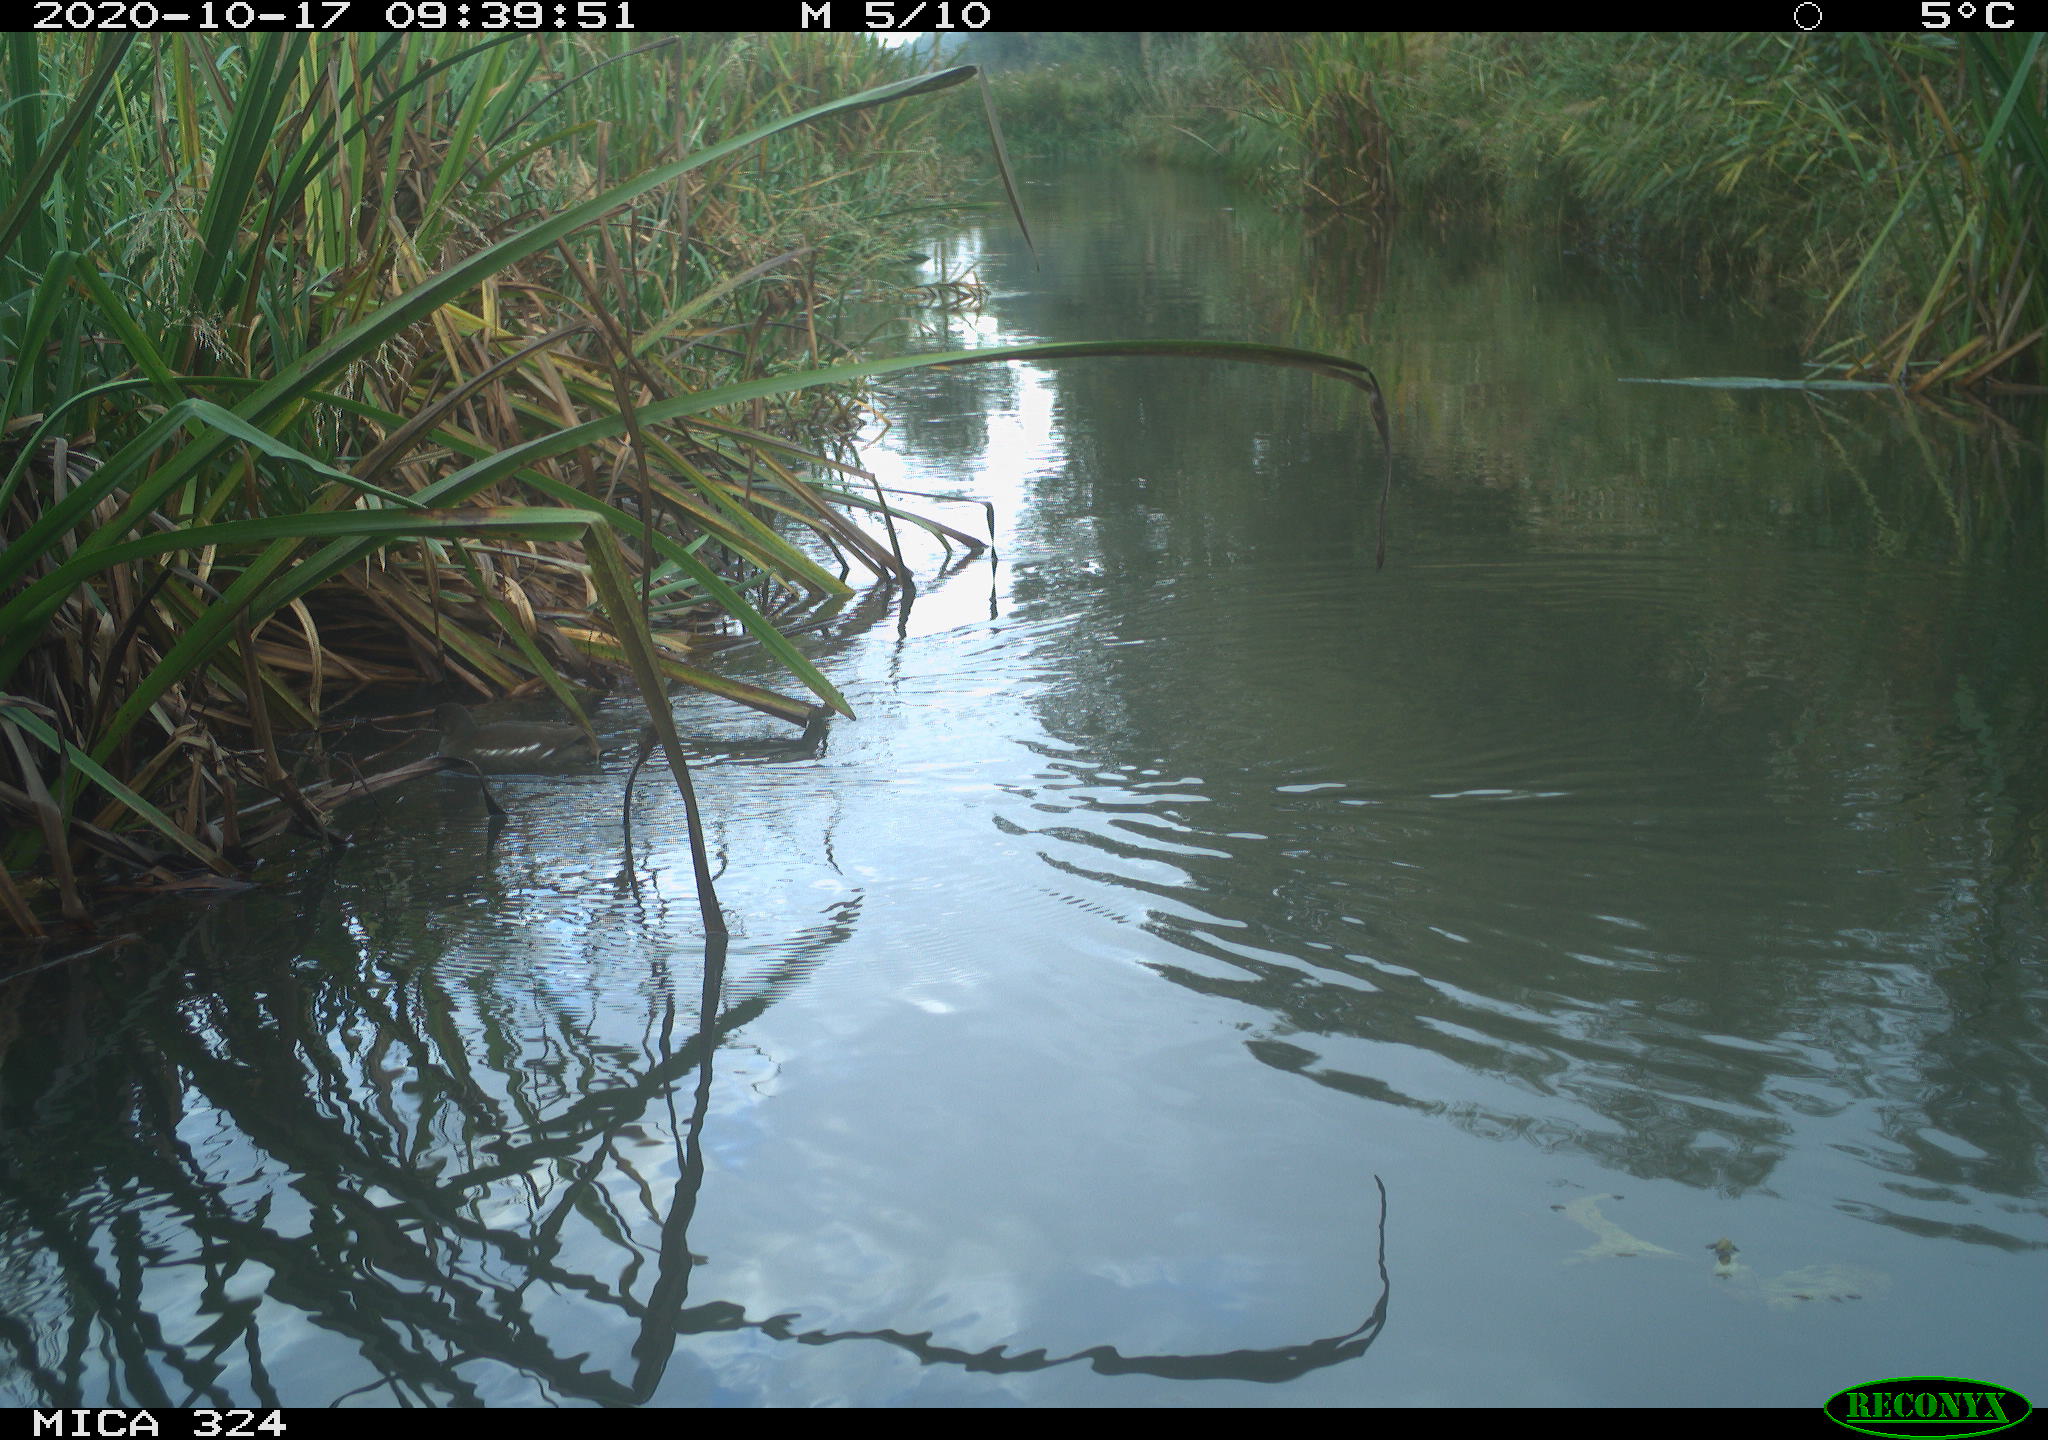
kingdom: Animalia
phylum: Chordata
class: Aves
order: Gruiformes
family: Rallidae
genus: Gallinula
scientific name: Gallinula chloropus
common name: Common moorhen
